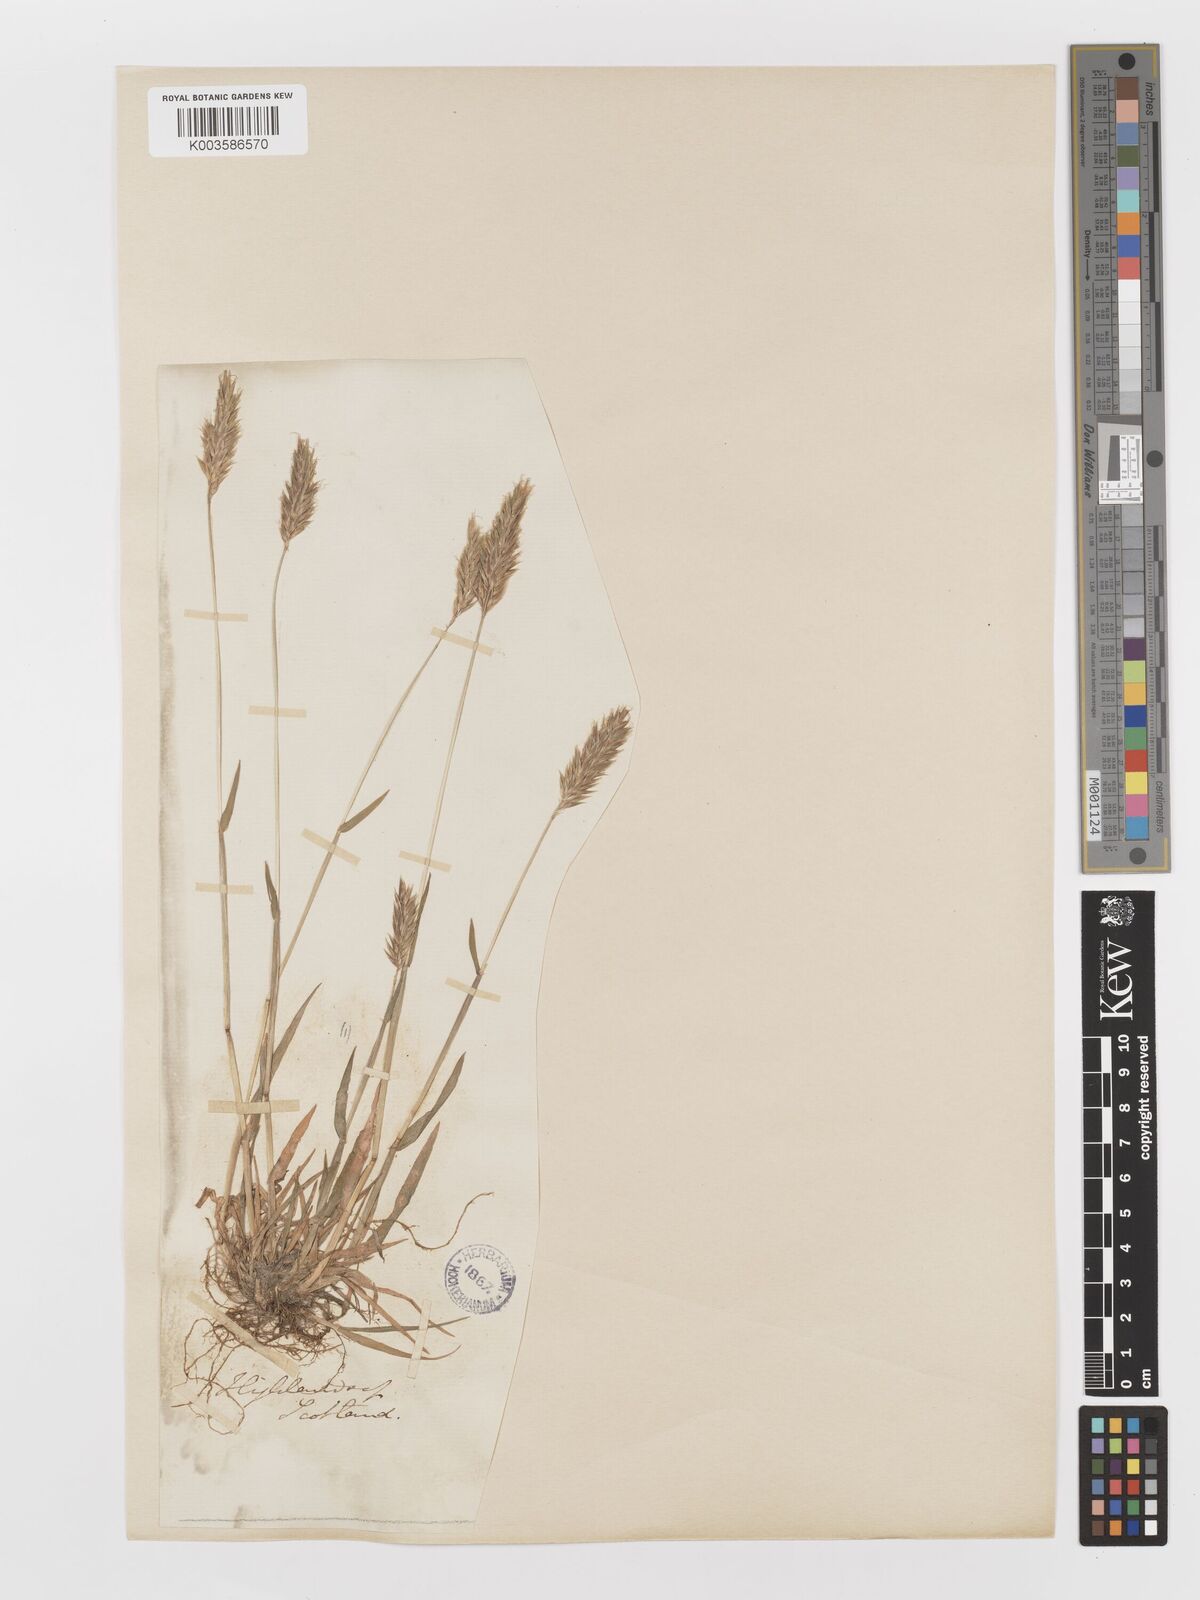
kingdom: Plantae
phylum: Tracheophyta
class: Liliopsida
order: Poales
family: Poaceae
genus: Anthoxanthum
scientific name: Anthoxanthum odoratum
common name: Sweet vernalgrass
